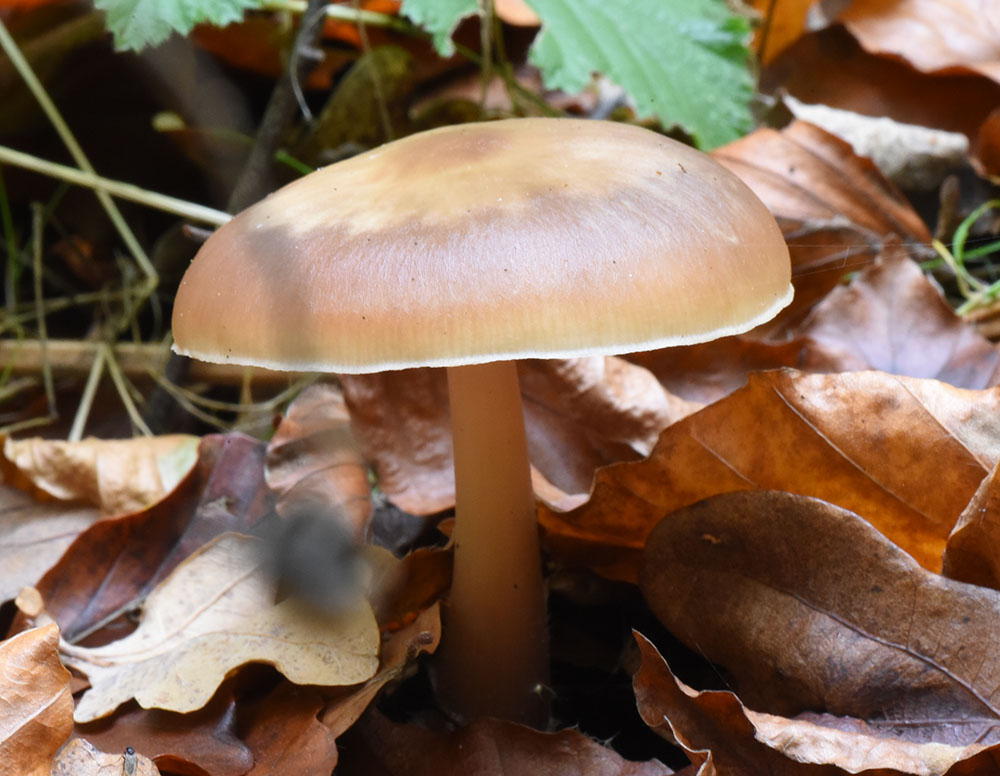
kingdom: Fungi
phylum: Basidiomycota
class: Agaricomycetes
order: Agaricales
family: Omphalotaceae
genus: Rhodocollybia
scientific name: Rhodocollybia butyracea
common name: Butter cap
